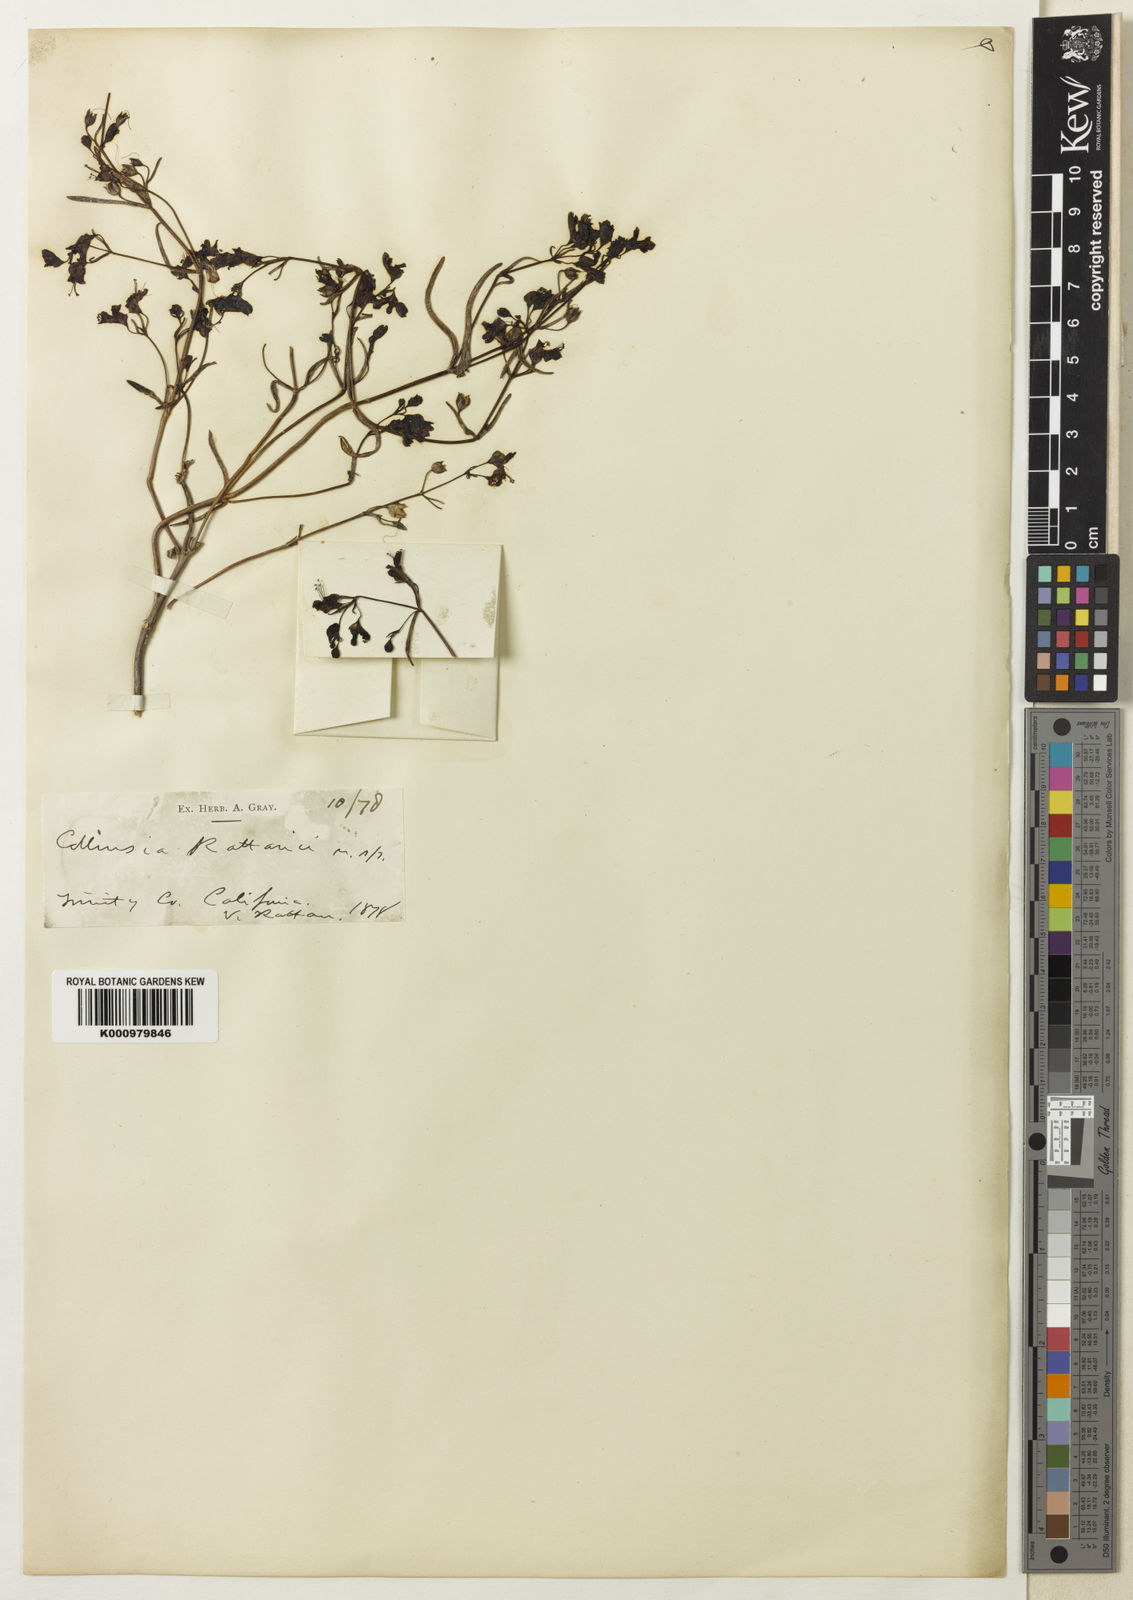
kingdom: Plantae
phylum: Tracheophyta
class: Magnoliopsida
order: Lamiales
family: Plantaginaceae
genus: Collinsia
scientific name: Collinsia rattanii
